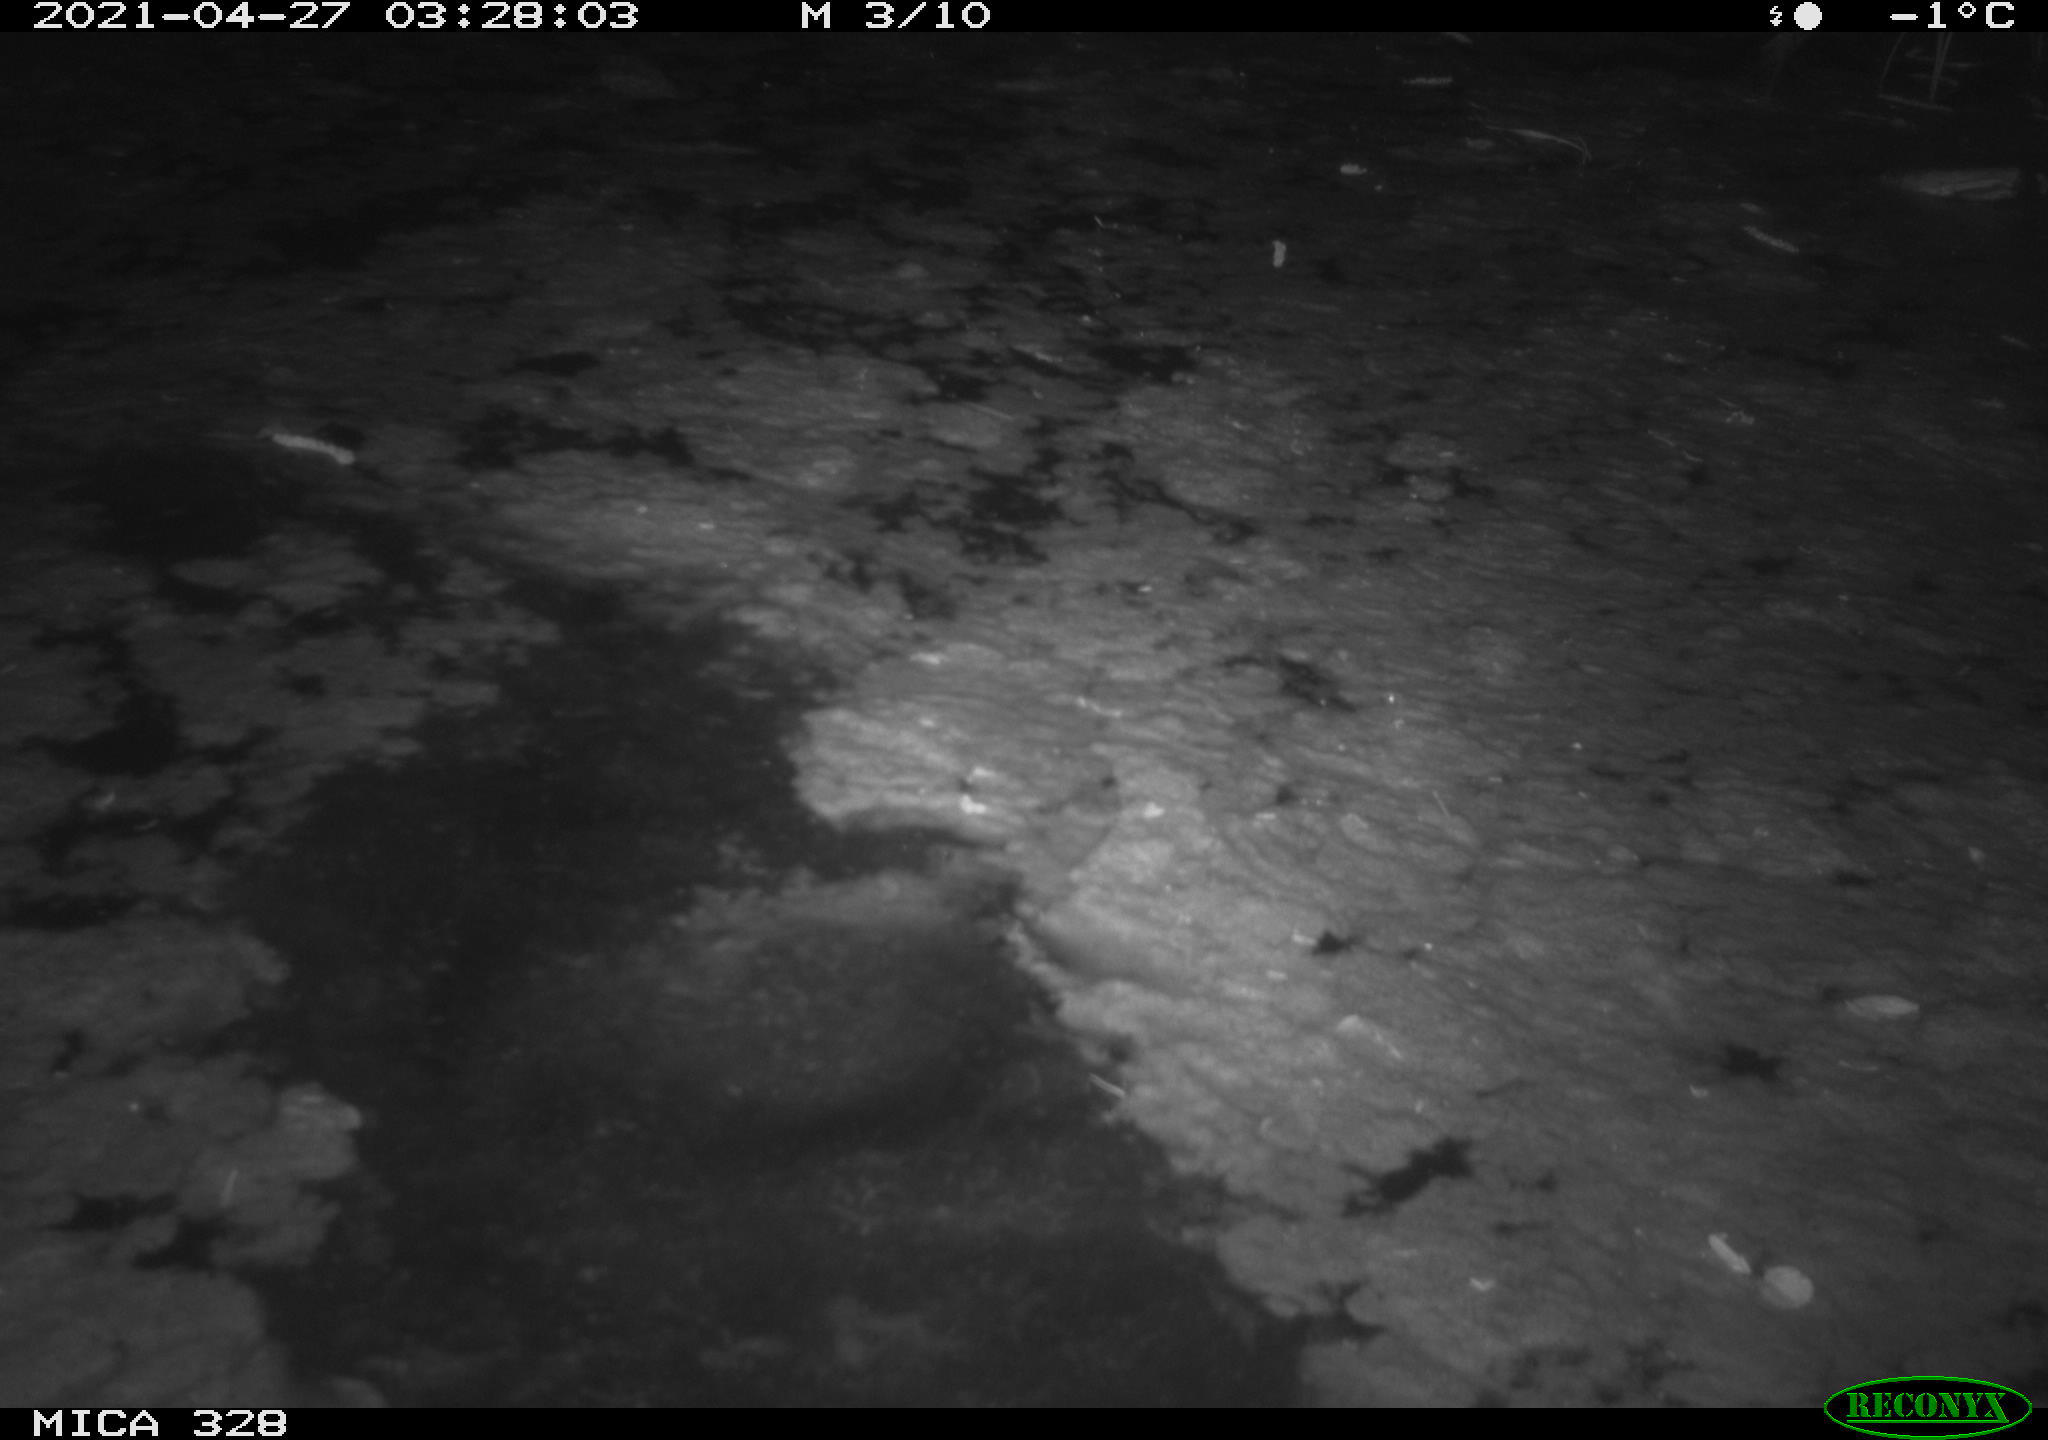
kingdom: Animalia
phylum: Chordata
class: Mammalia
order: Carnivora
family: Mustelidae
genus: Lutra
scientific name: Lutra lutra
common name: European otter
